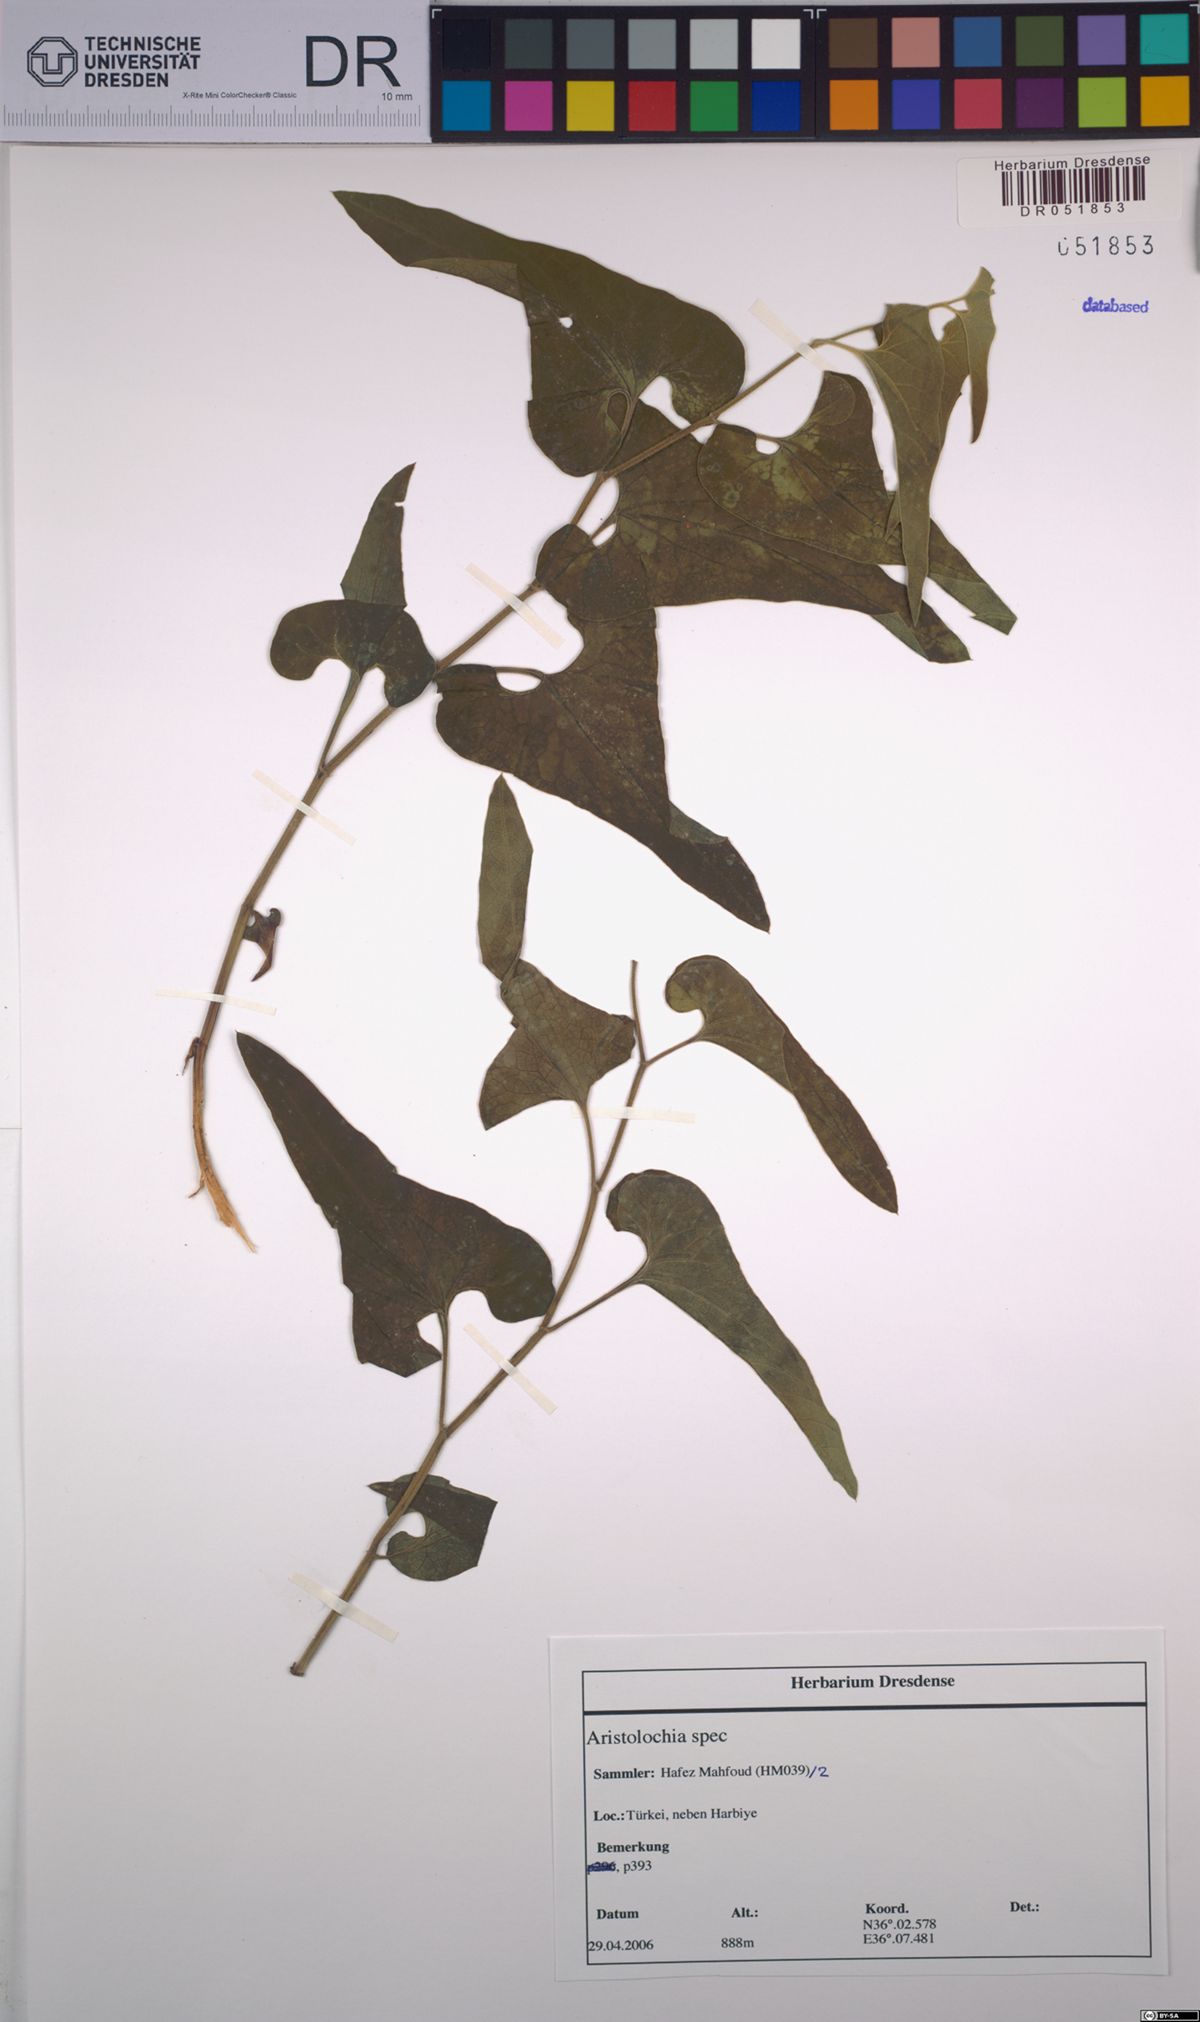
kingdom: Plantae
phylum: Tracheophyta
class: Magnoliopsida
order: Piperales
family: Aristolochiaceae
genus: Aristolochia
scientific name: Aristolochia
